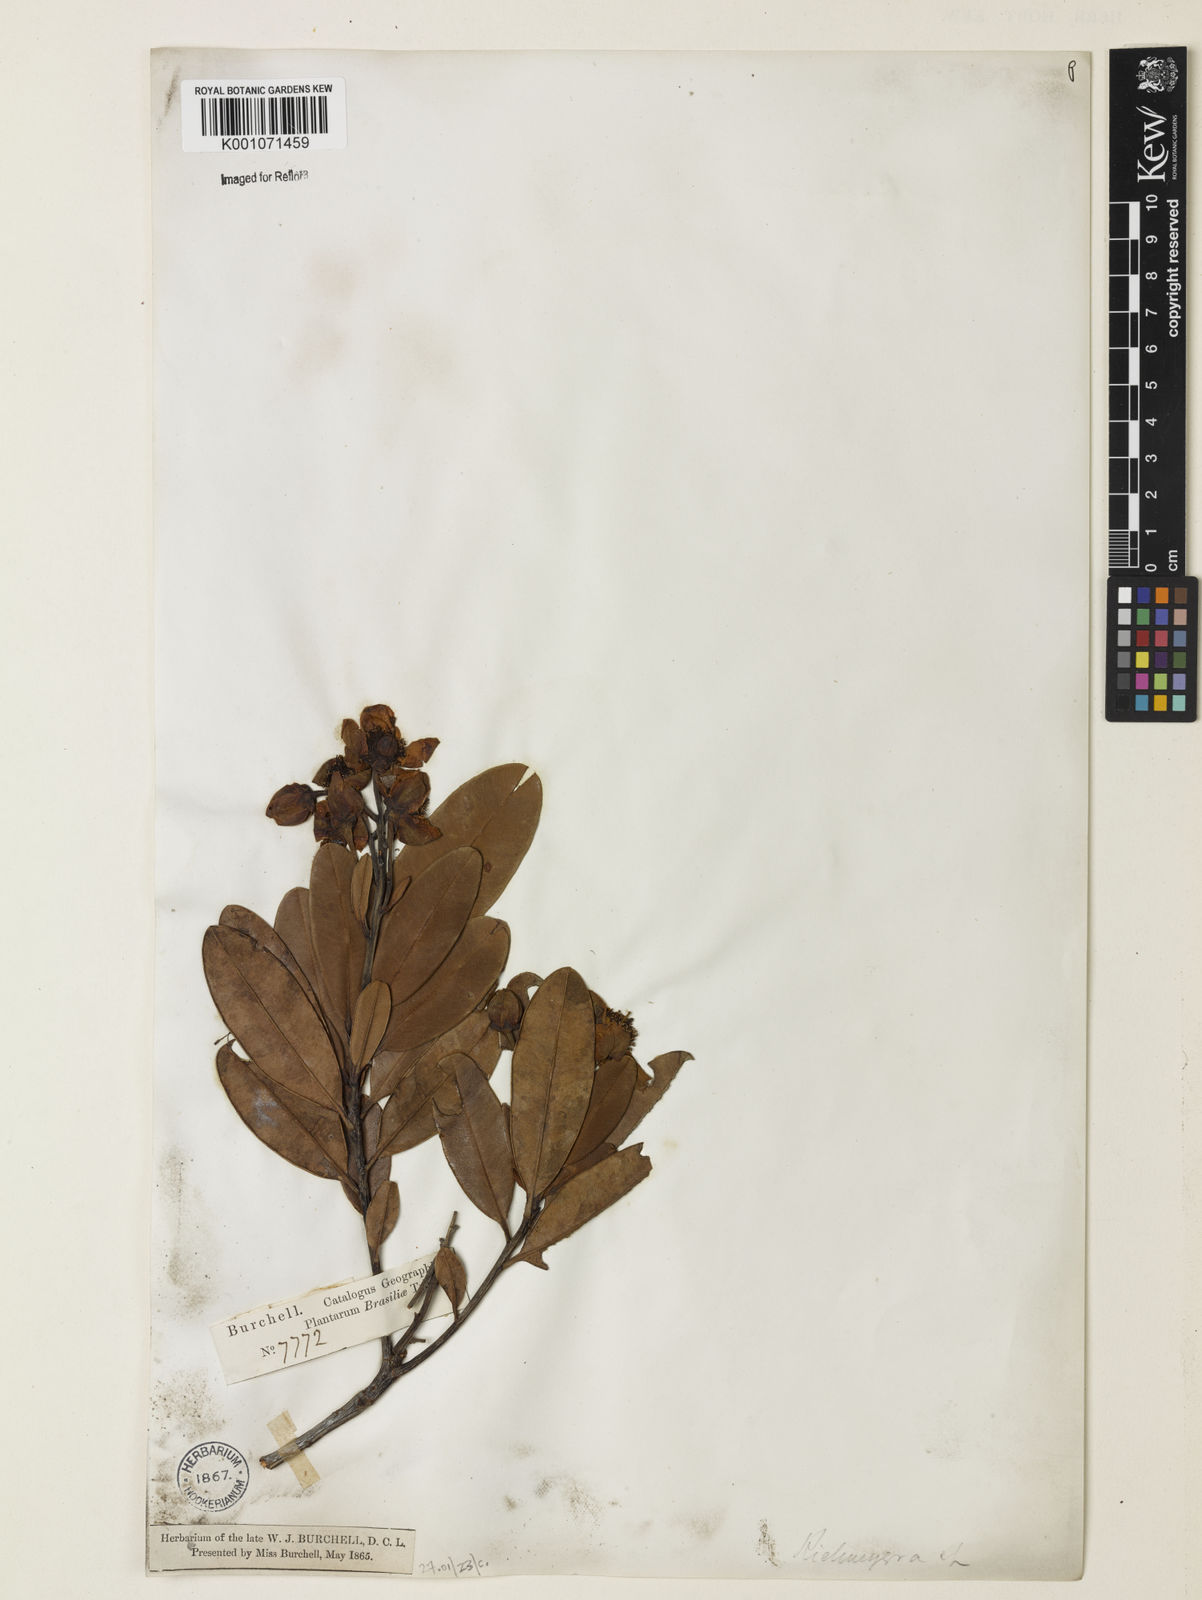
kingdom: Plantae
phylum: Tracheophyta
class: Magnoliopsida
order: Malpighiales
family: Calophyllaceae
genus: Kielmeyera
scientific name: Kielmeyera corymbosa
